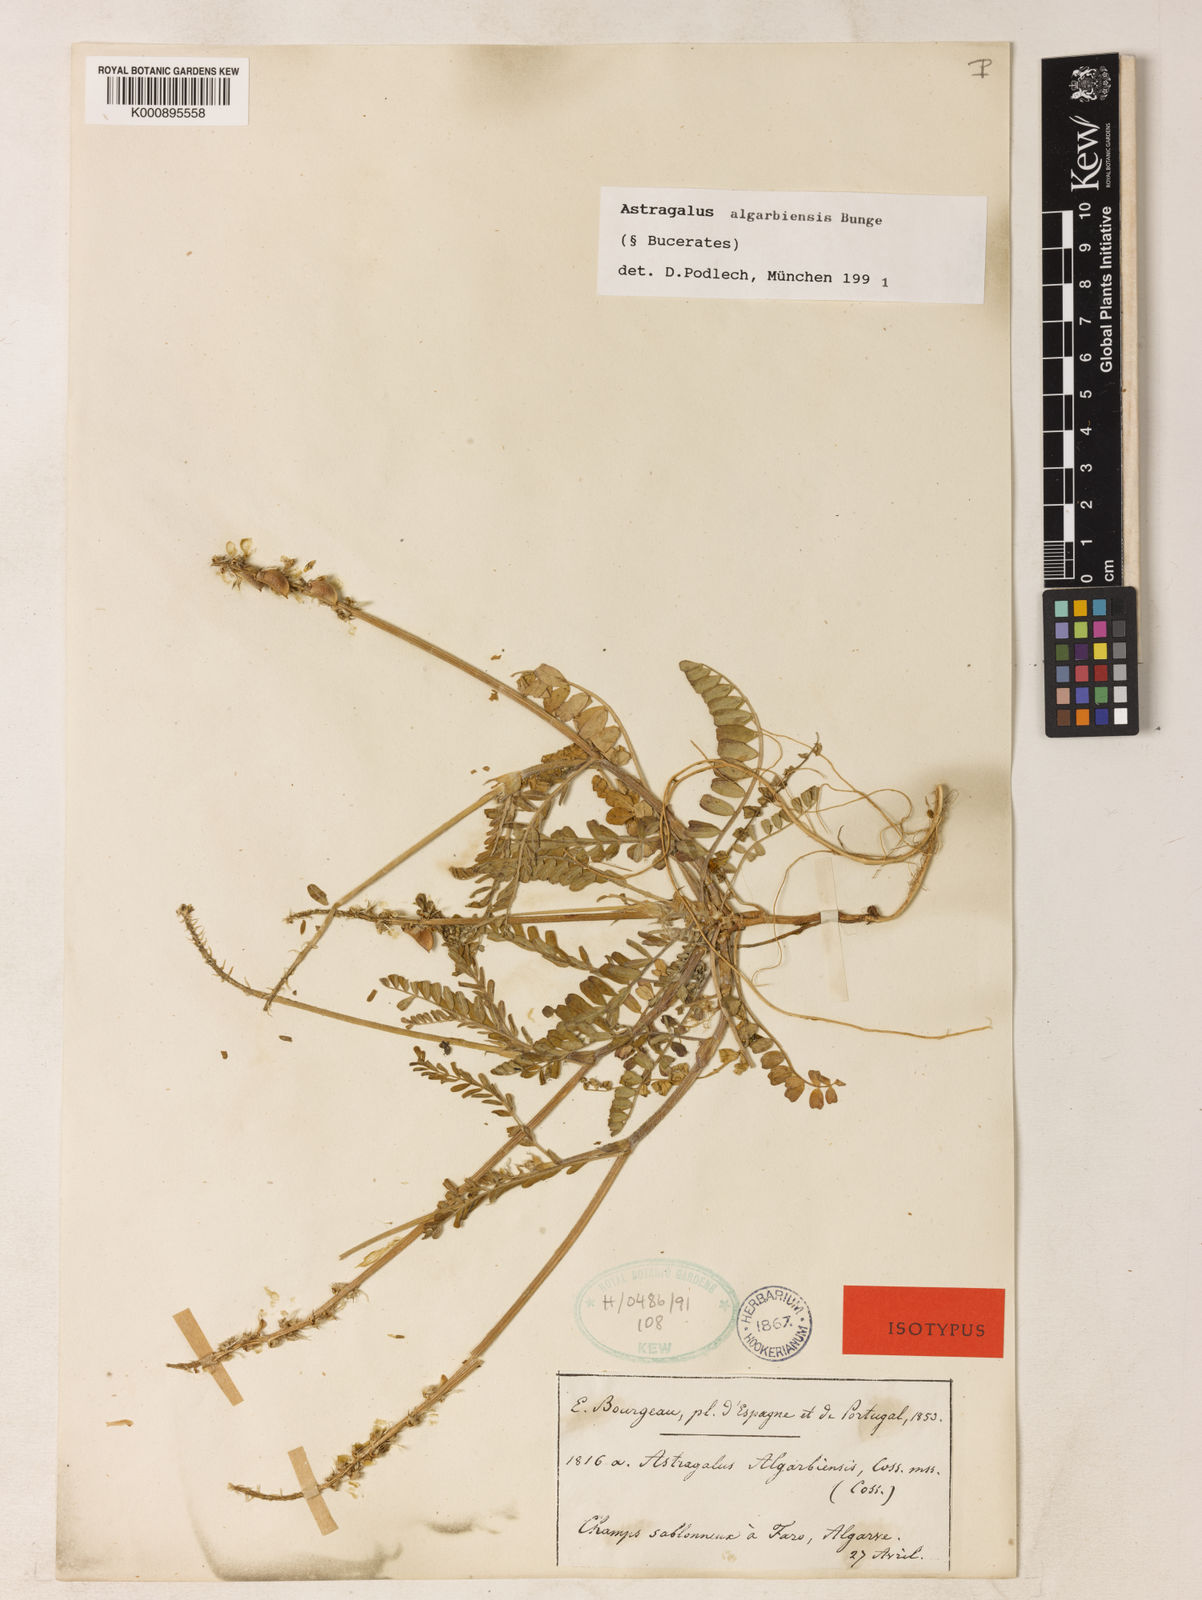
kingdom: Plantae
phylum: Tracheophyta
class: Magnoliopsida
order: Fabales
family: Fabaceae
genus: Astragalus
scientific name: Astragalus
